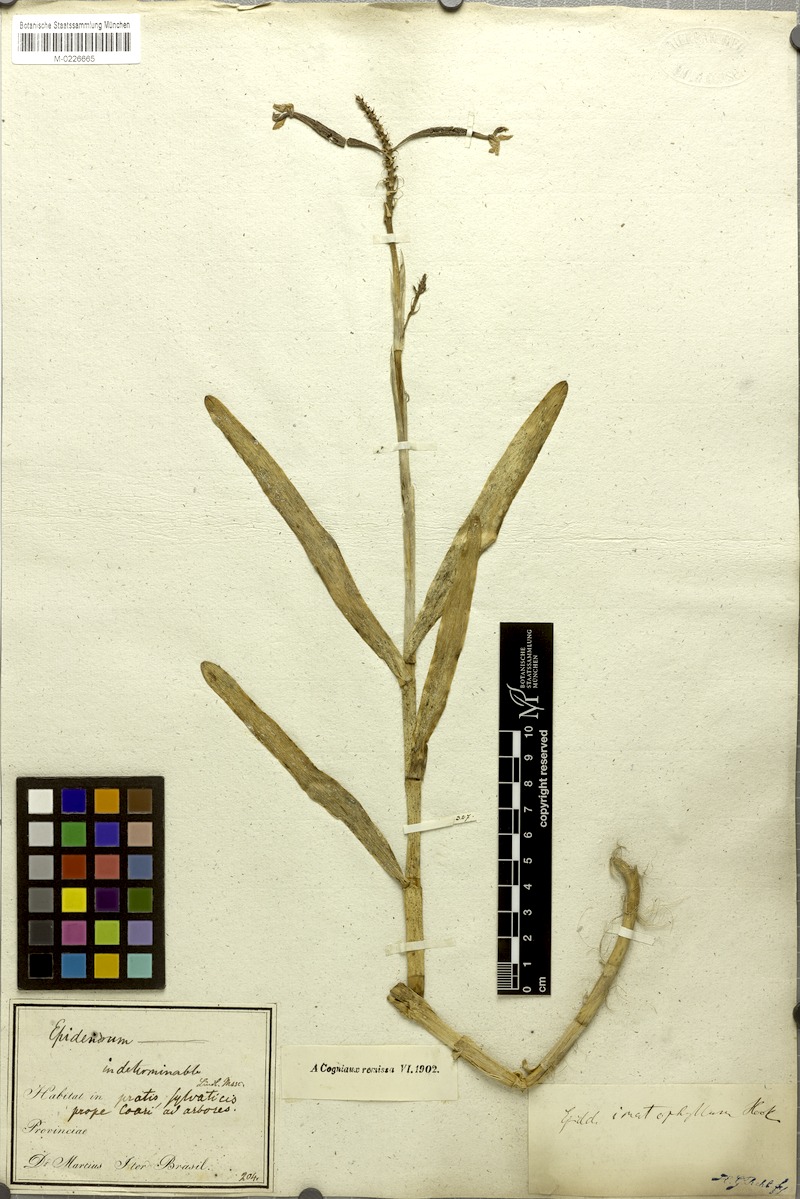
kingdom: Plantae
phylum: Tracheophyta
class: Liliopsida
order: Asparagales
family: Orchidaceae
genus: Epidendrum
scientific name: Epidendrum flexuosum
